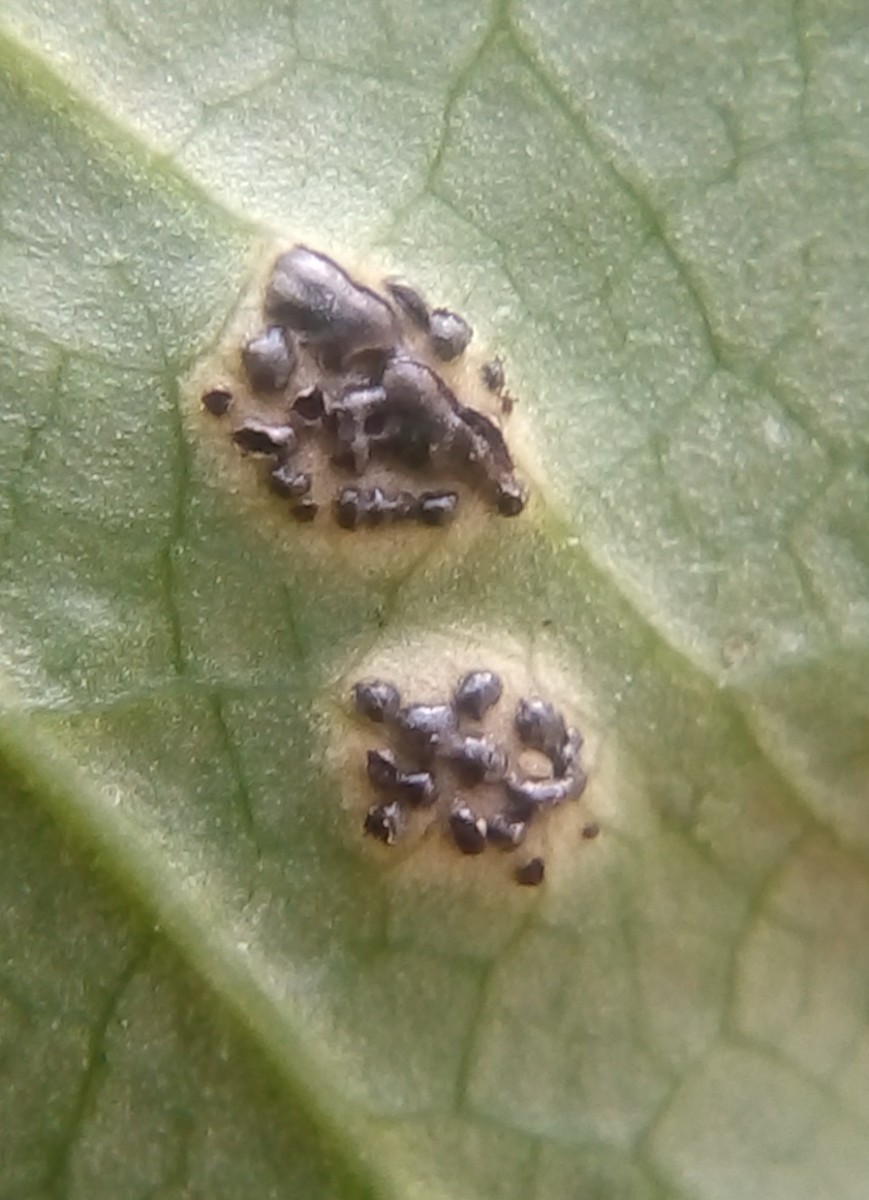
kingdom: Fungi
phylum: Basidiomycota
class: Pucciniomycetes
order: Pucciniales
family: Pucciniaceae
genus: Puccinia
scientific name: Puccinia
